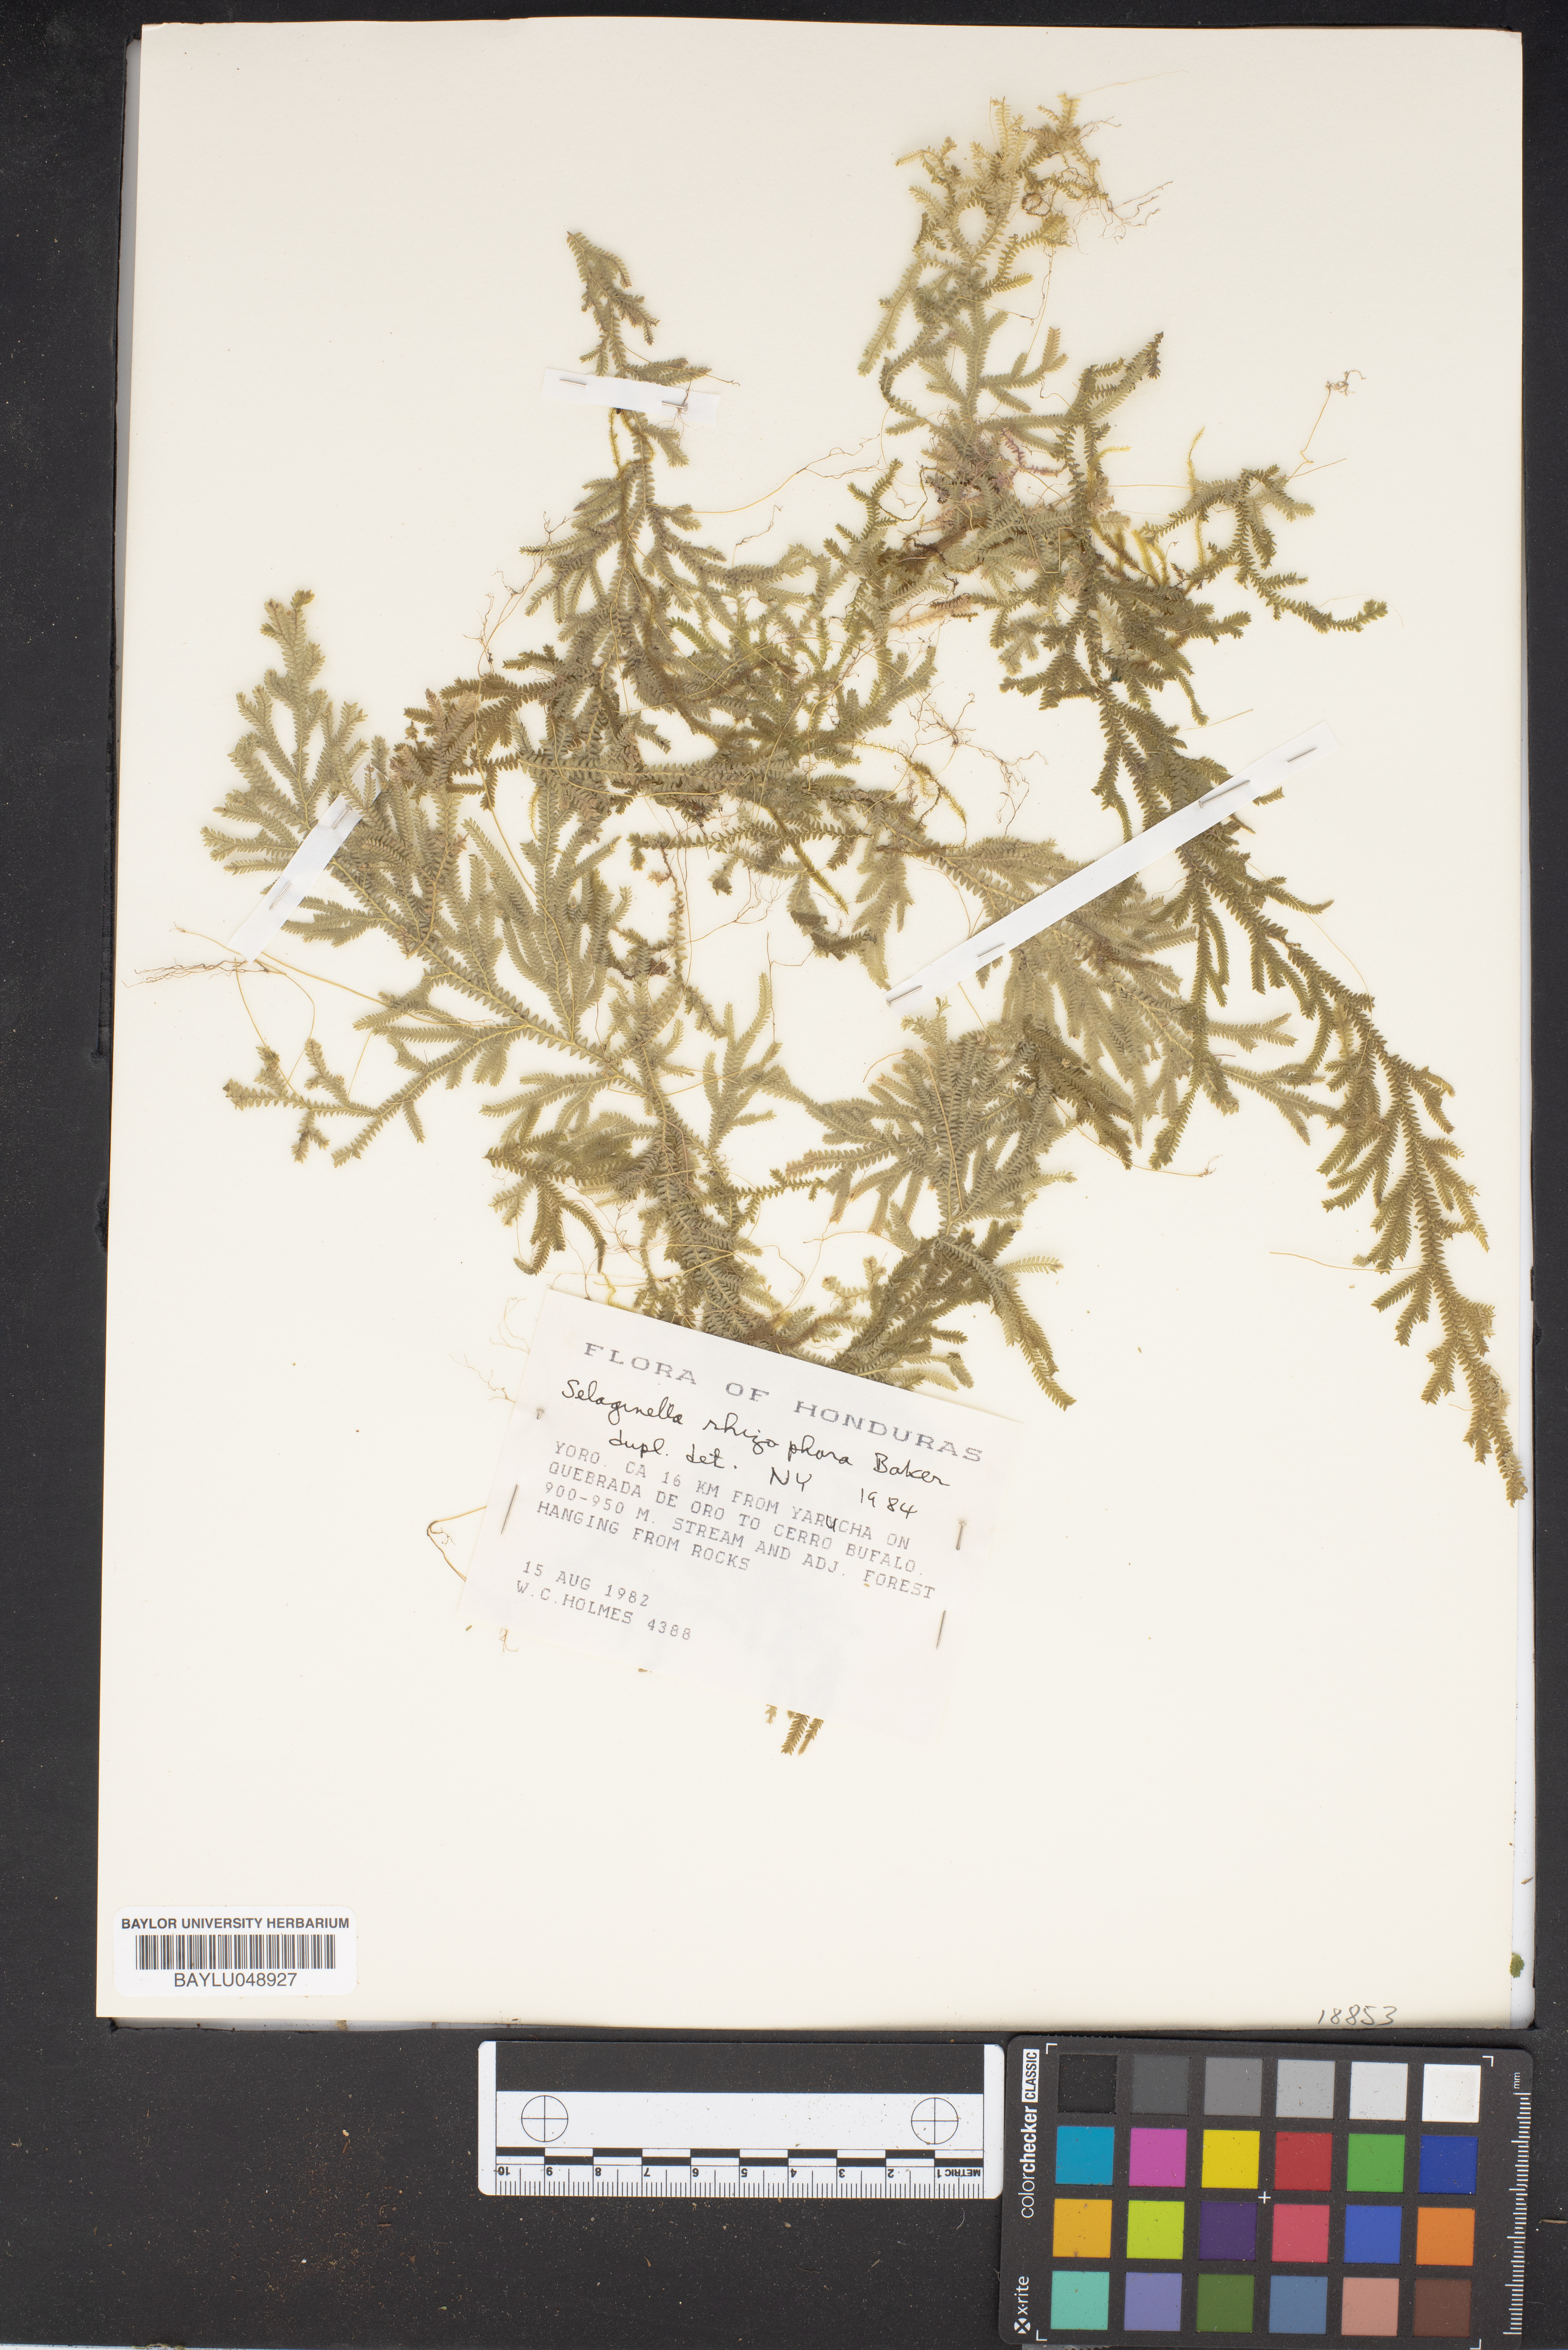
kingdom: Plantae
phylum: Tracheophyta
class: Lycopodiopsida
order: Selaginellales
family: Selaginellaceae
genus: Selaginella
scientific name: Selaginella
